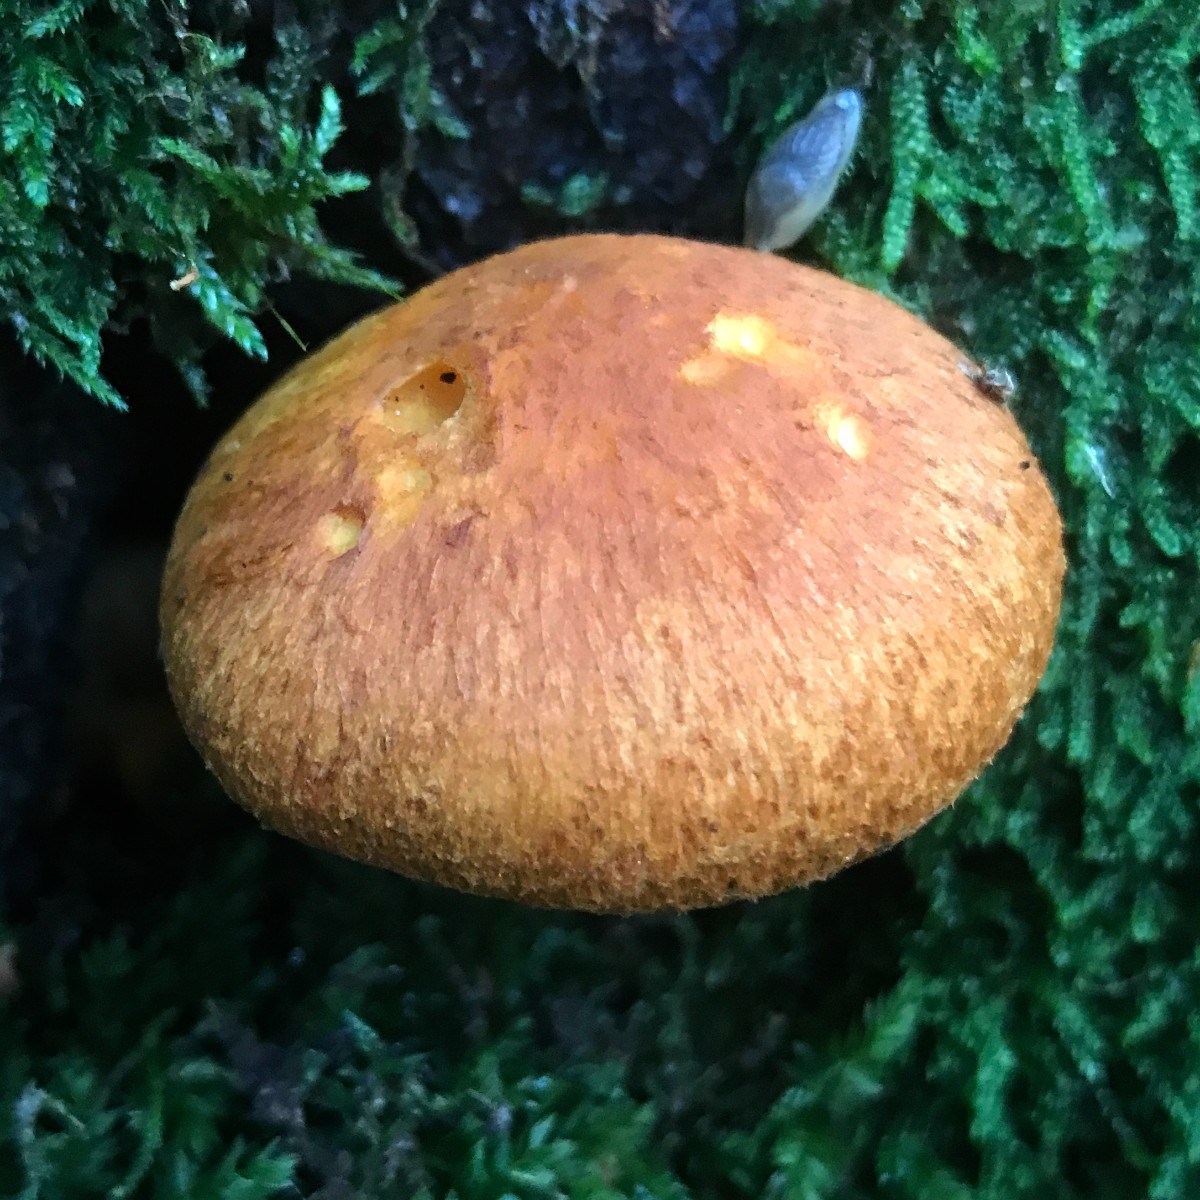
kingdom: Fungi
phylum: Basidiomycota
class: Agaricomycetes
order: Agaricales
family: Hymenogastraceae
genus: Gymnopilus
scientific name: Gymnopilus spectabilis
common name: fibret flammehat
